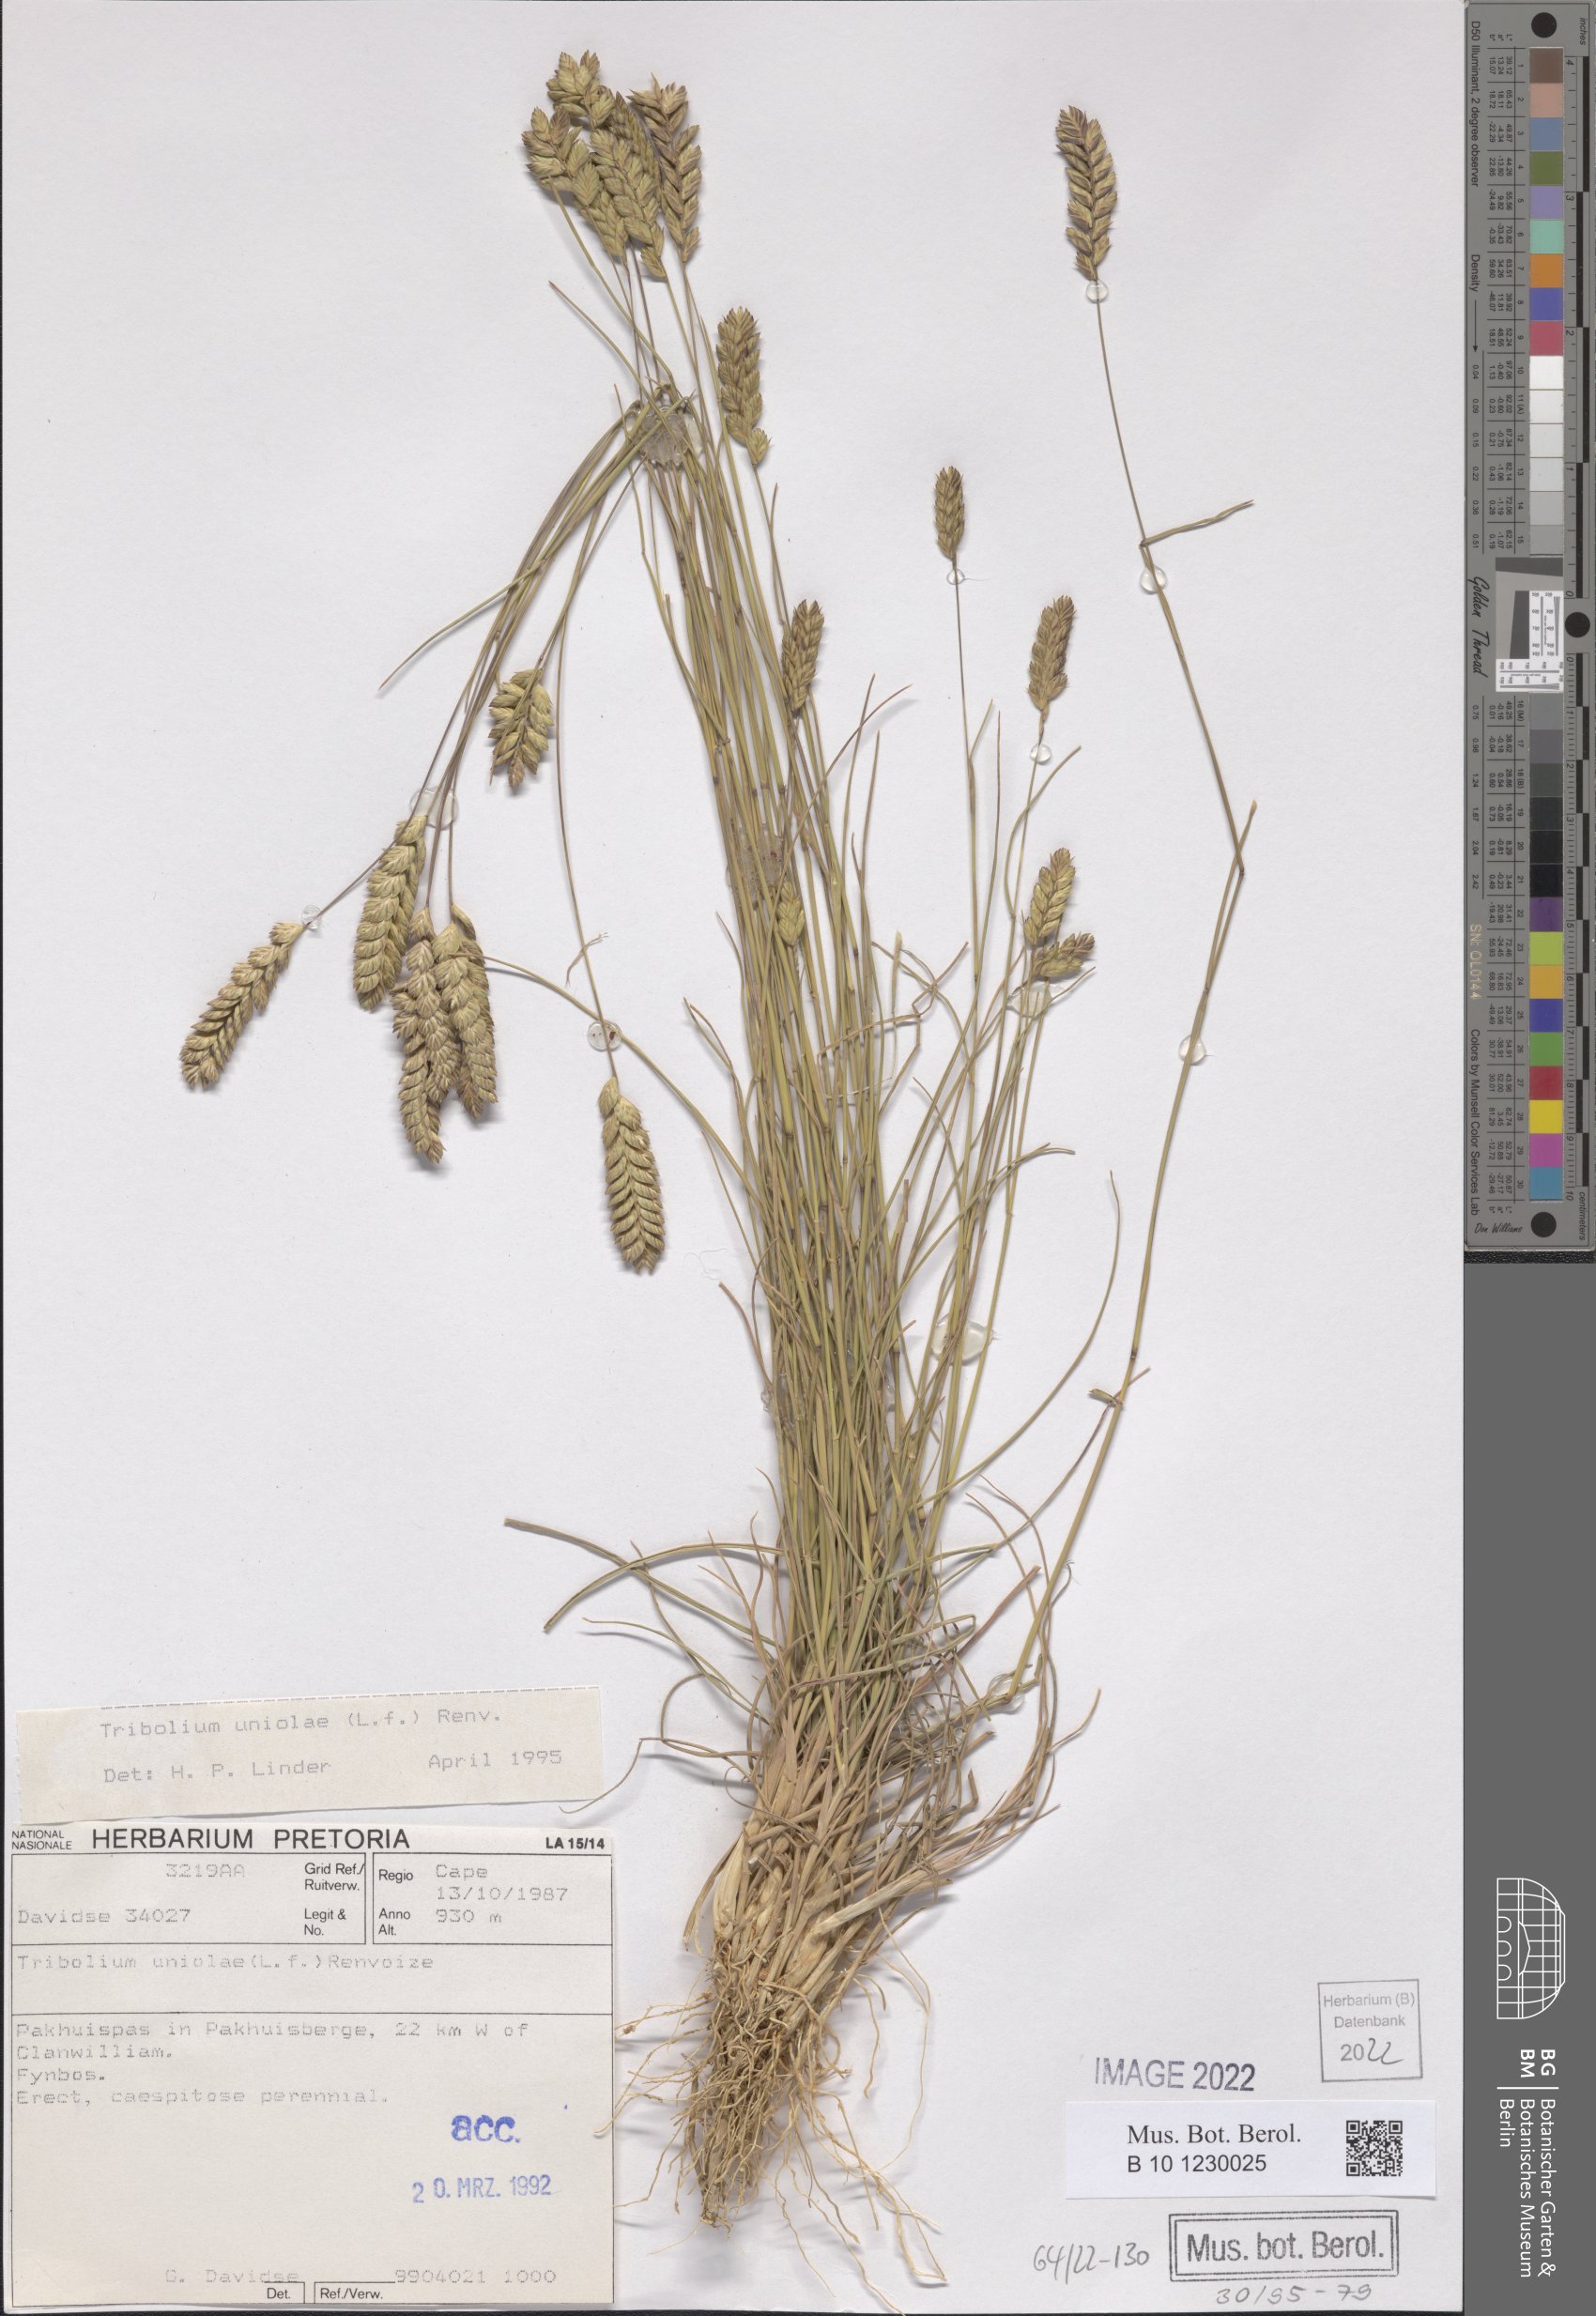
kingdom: Plantae
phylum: Tracheophyta
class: Liliopsida
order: Poales
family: Poaceae
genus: Tribolium
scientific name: Tribolium uniolae
